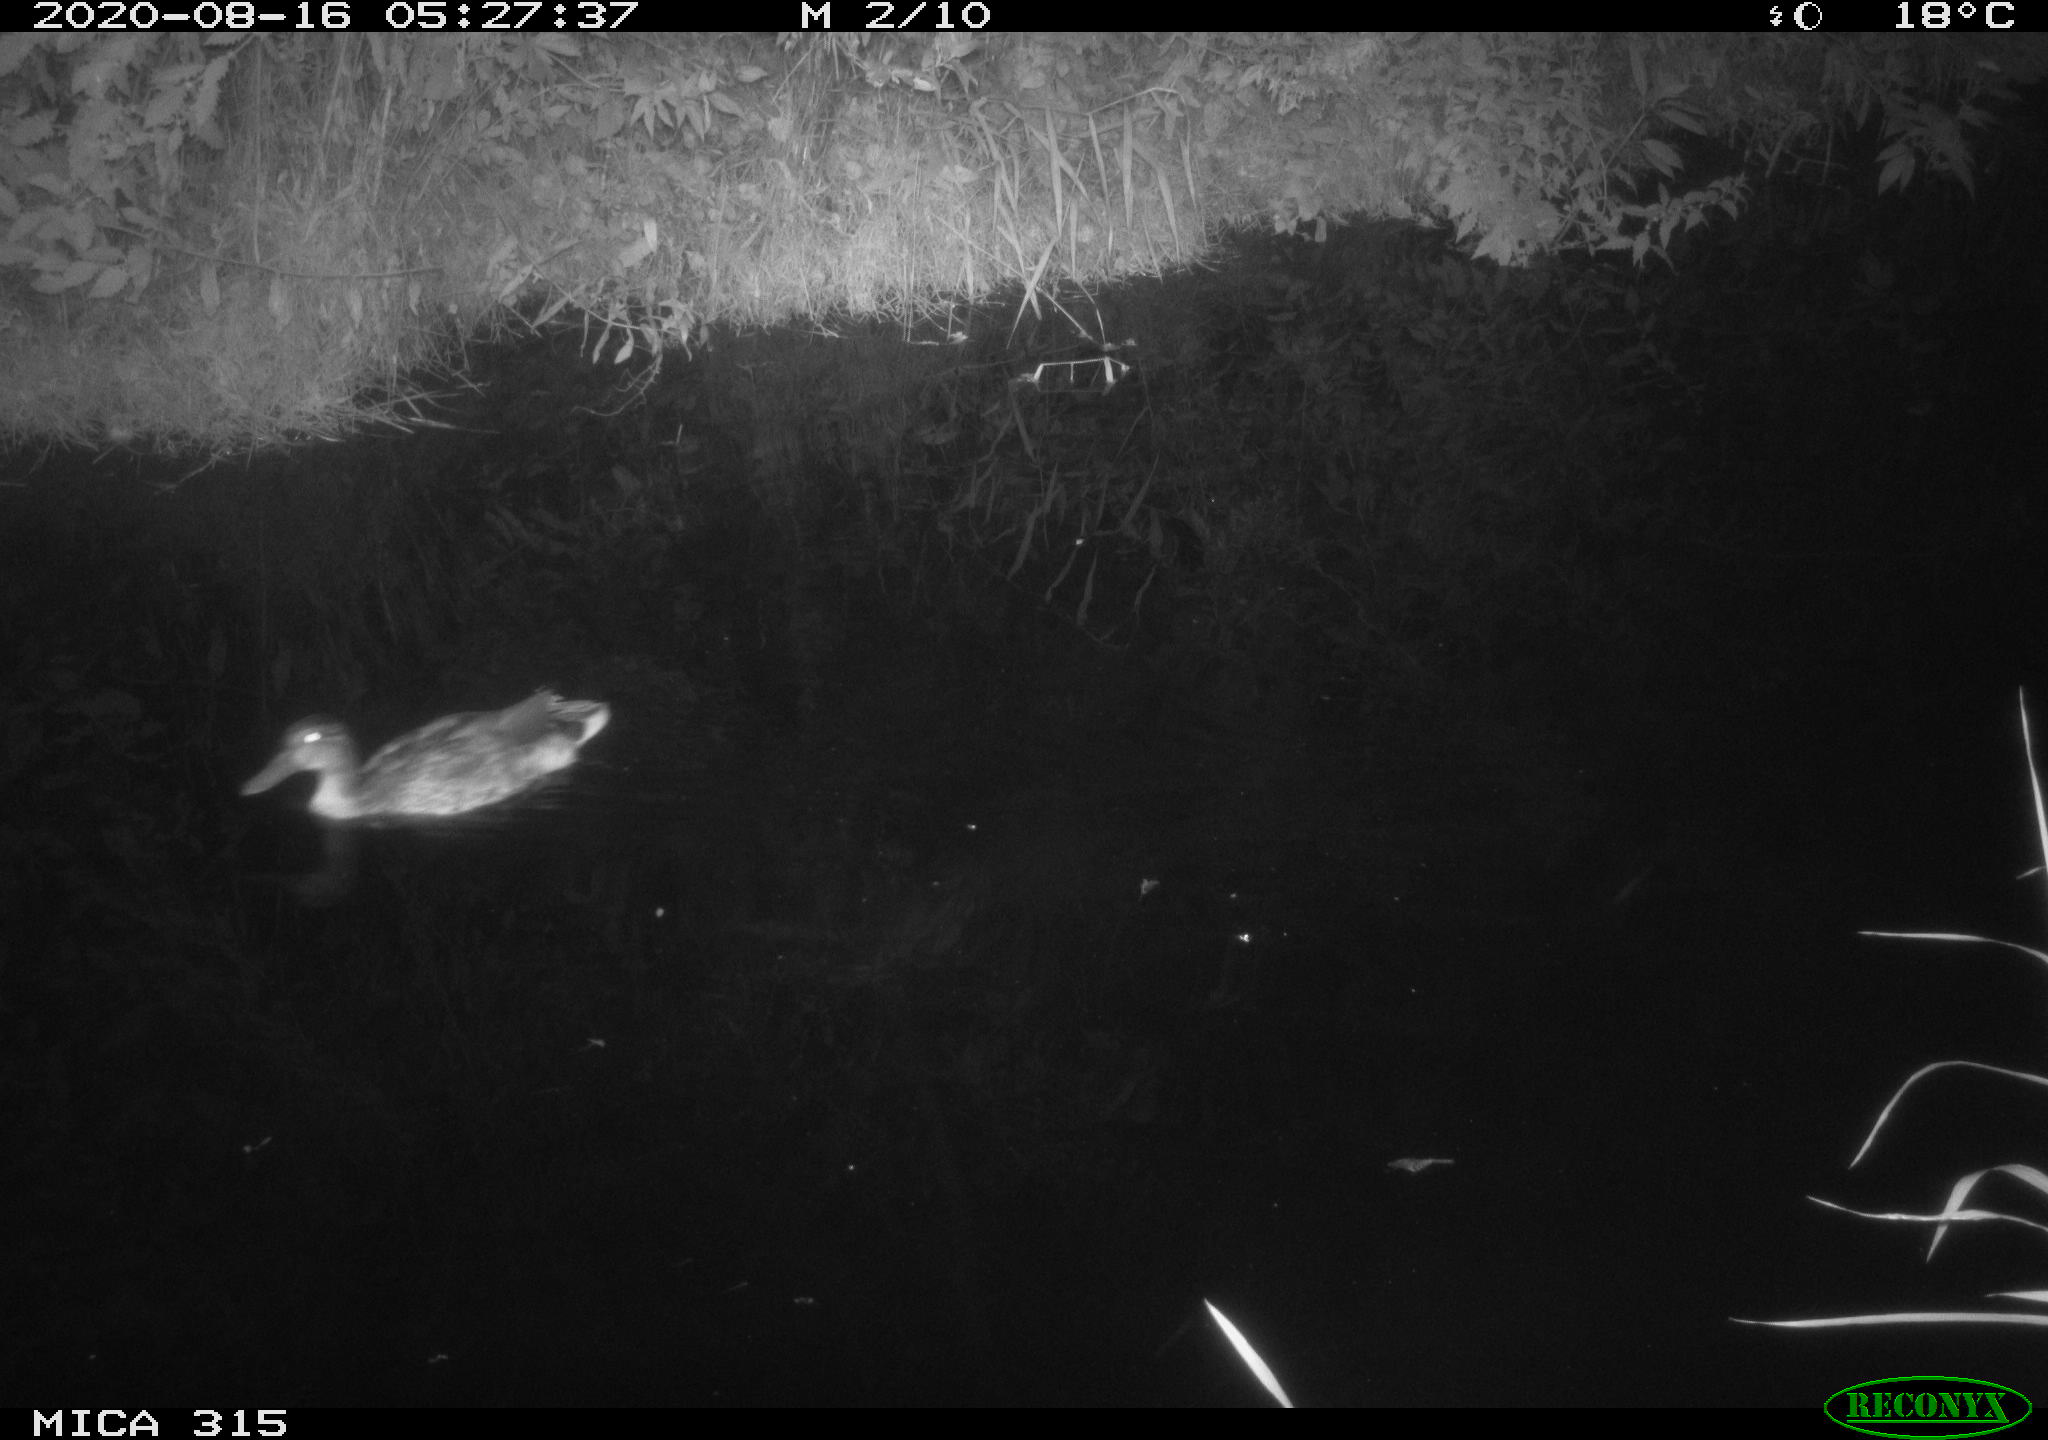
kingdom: Animalia
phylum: Chordata
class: Aves
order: Anseriformes
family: Anatidae
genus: Anas
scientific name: Anas platyrhynchos
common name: Mallard
